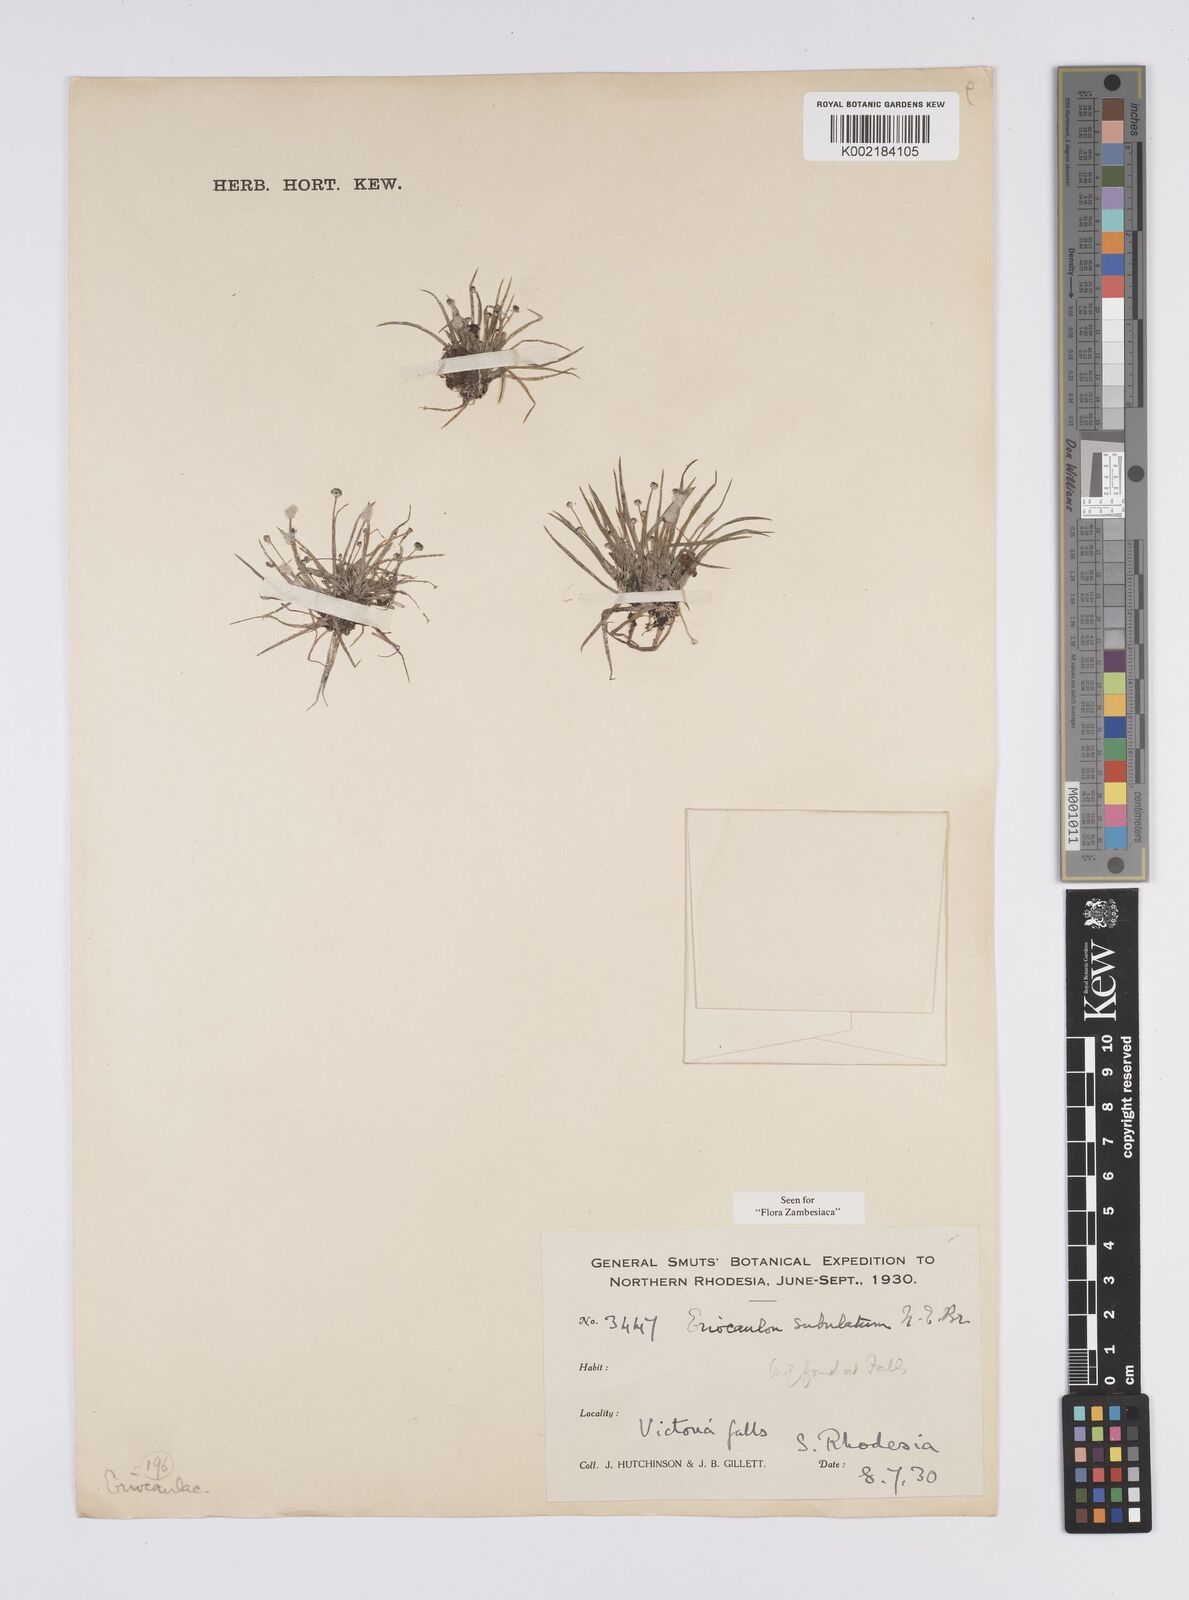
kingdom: Plantae
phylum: Tracheophyta
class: Liliopsida
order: Poales
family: Eriocaulaceae
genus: Eriocaulon
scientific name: Eriocaulon abyssinicum
